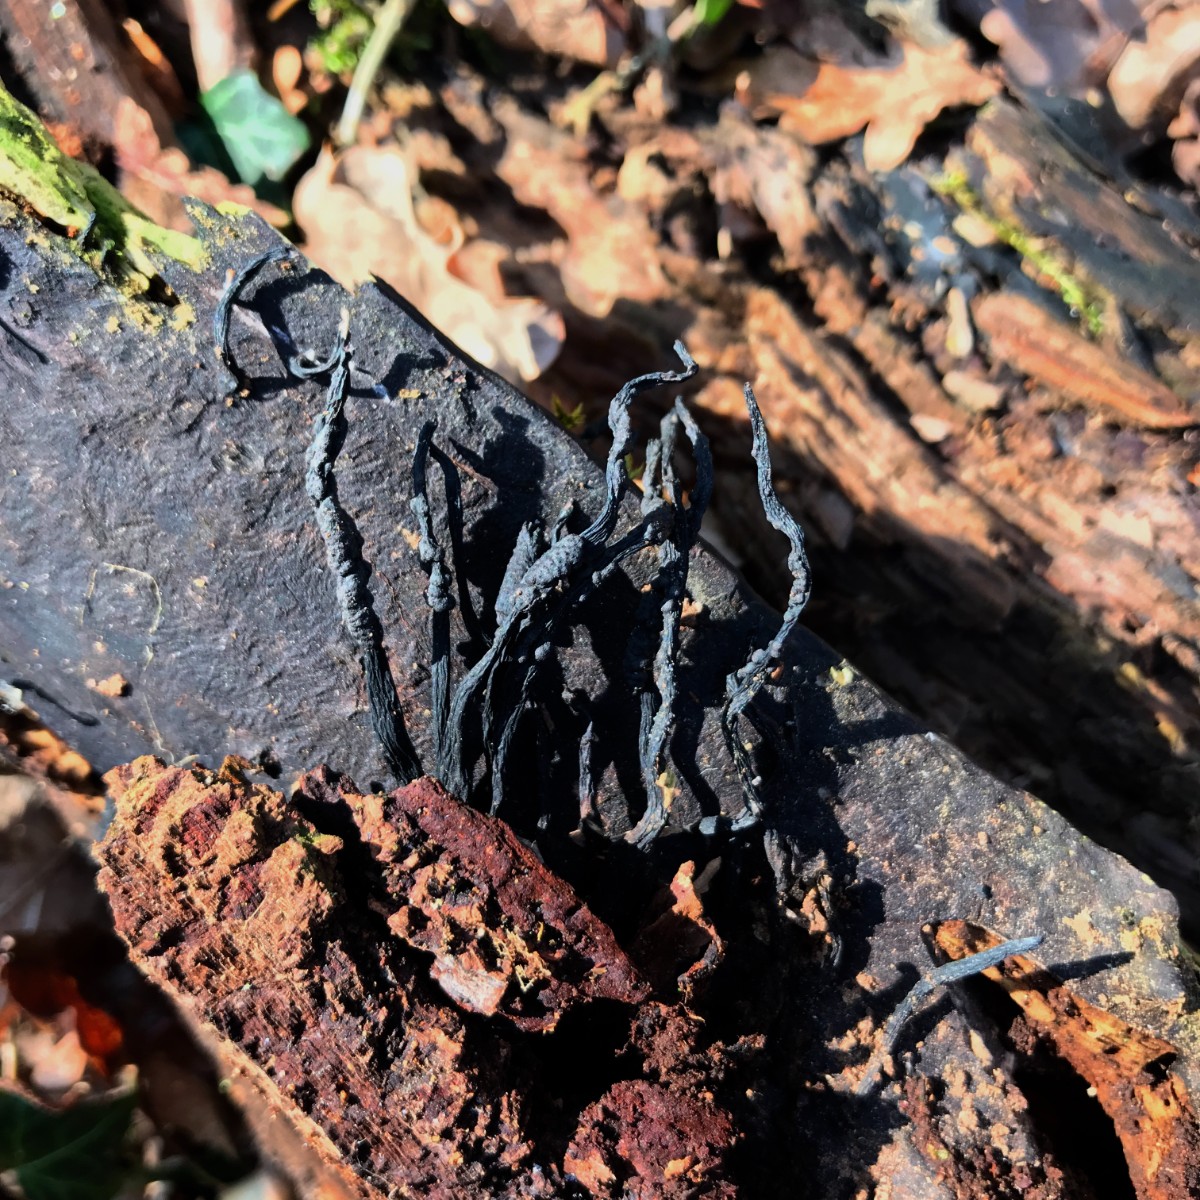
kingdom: Fungi
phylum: Ascomycota
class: Sordariomycetes
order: Xylariales
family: Xylariaceae
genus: Xylaria
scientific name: Xylaria hypoxylon
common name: grenet stødsvamp
